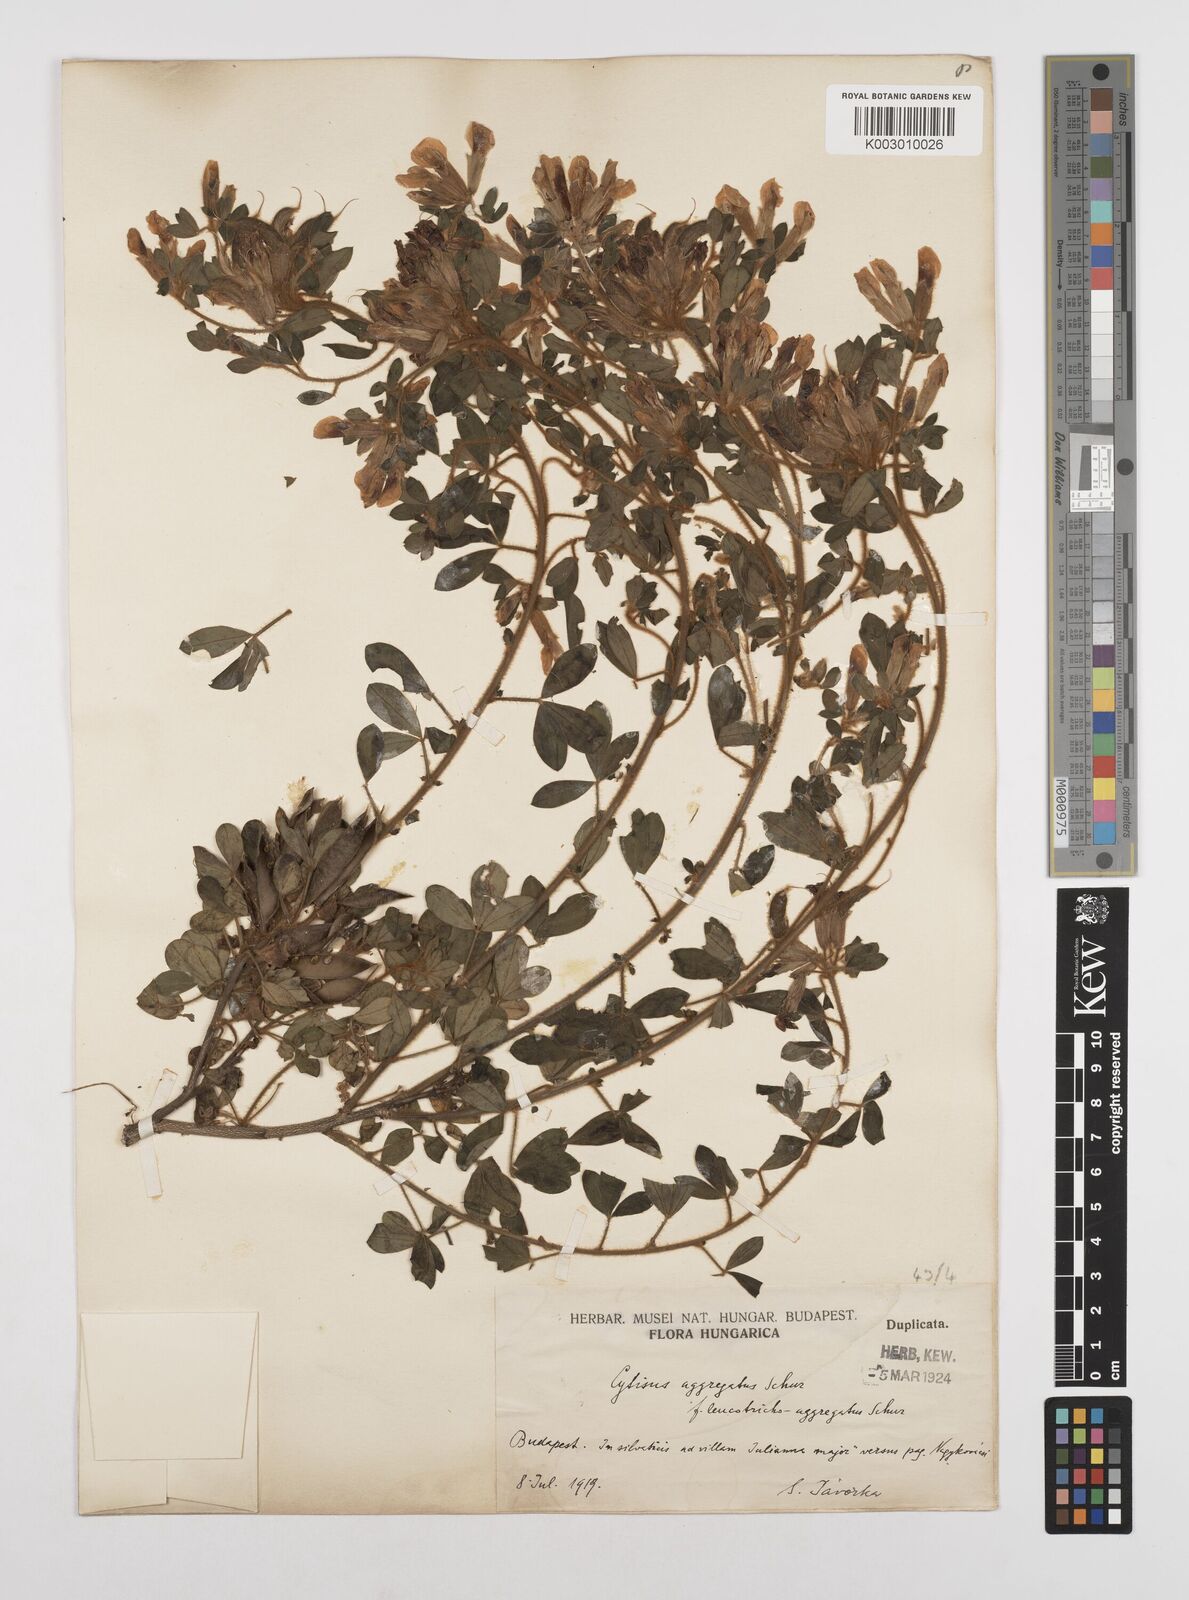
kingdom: Plantae
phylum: Tracheophyta
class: Magnoliopsida
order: Fabales
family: Fabaceae
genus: Chamaecytisus
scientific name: Chamaecytisus hirsutus
